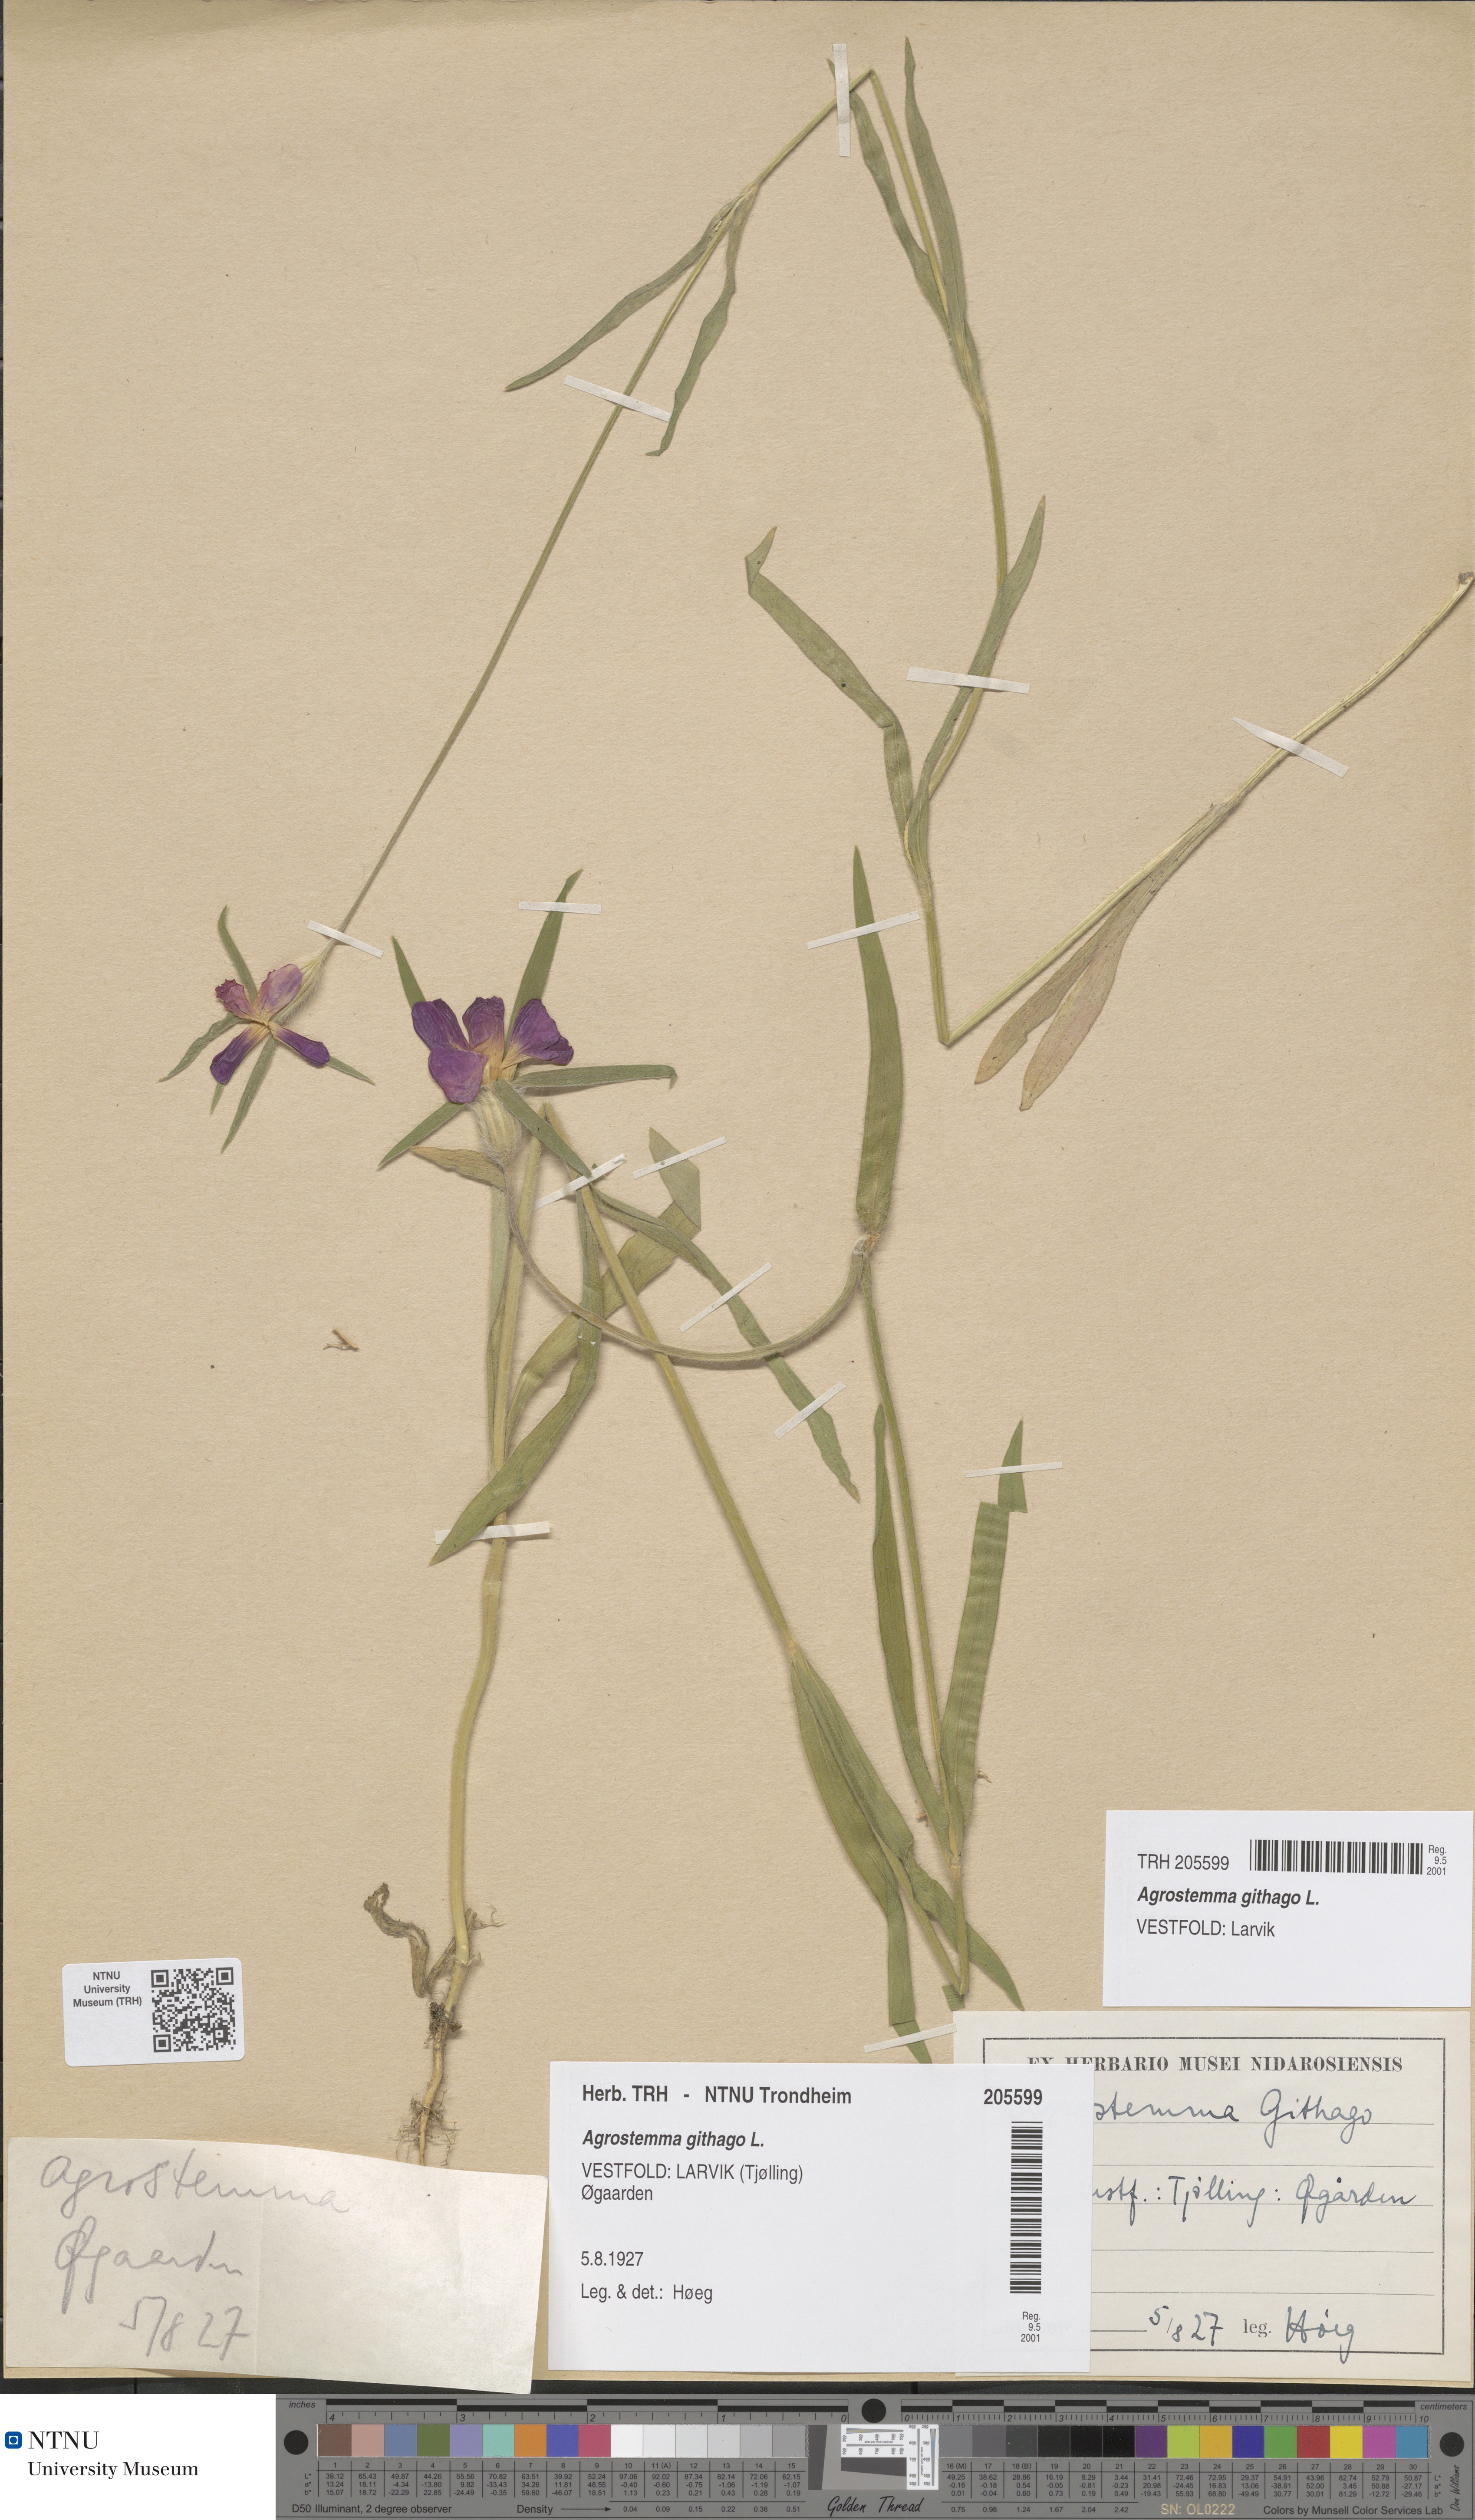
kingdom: Plantae
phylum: Tracheophyta
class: Magnoliopsida
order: Caryophyllales
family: Caryophyllaceae
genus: Agrostemma
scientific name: Agrostemma githago
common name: Common corncockle
